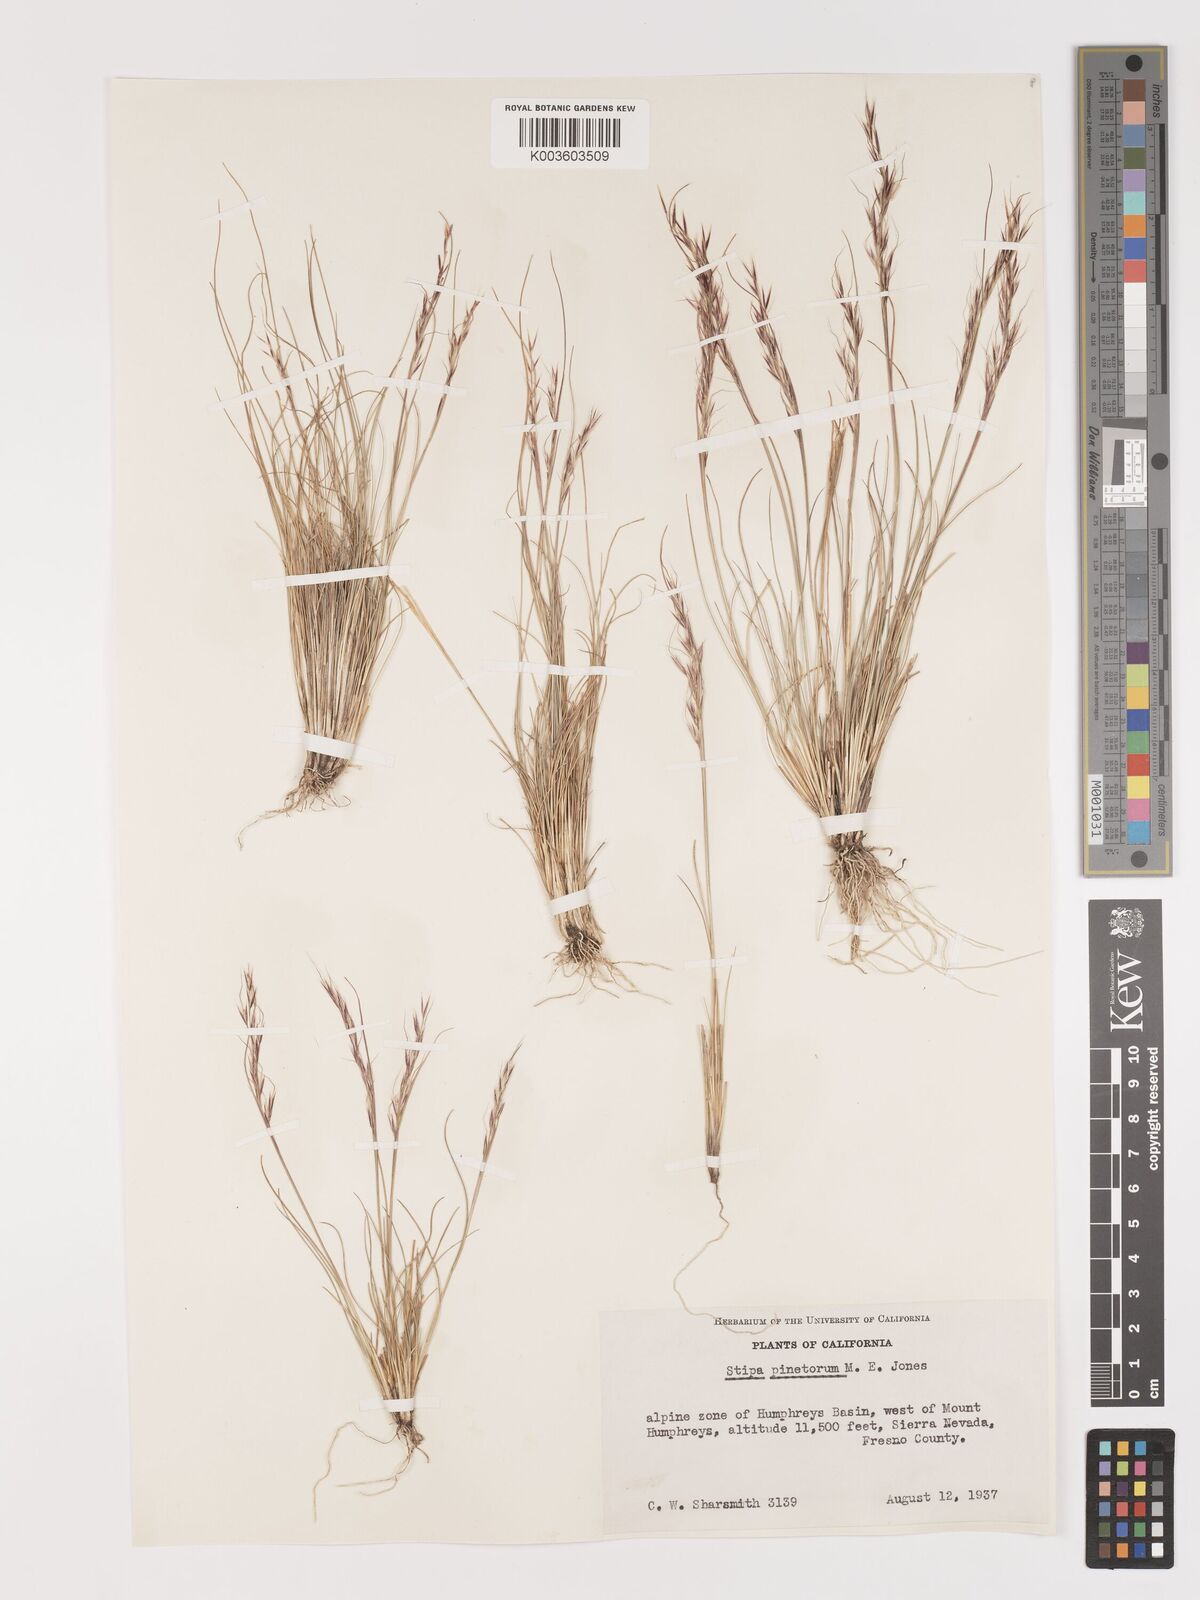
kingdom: Plantae
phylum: Tracheophyta
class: Liliopsida
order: Poales
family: Poaceae
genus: Eriocoma
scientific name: Eriocoma pinetorum
